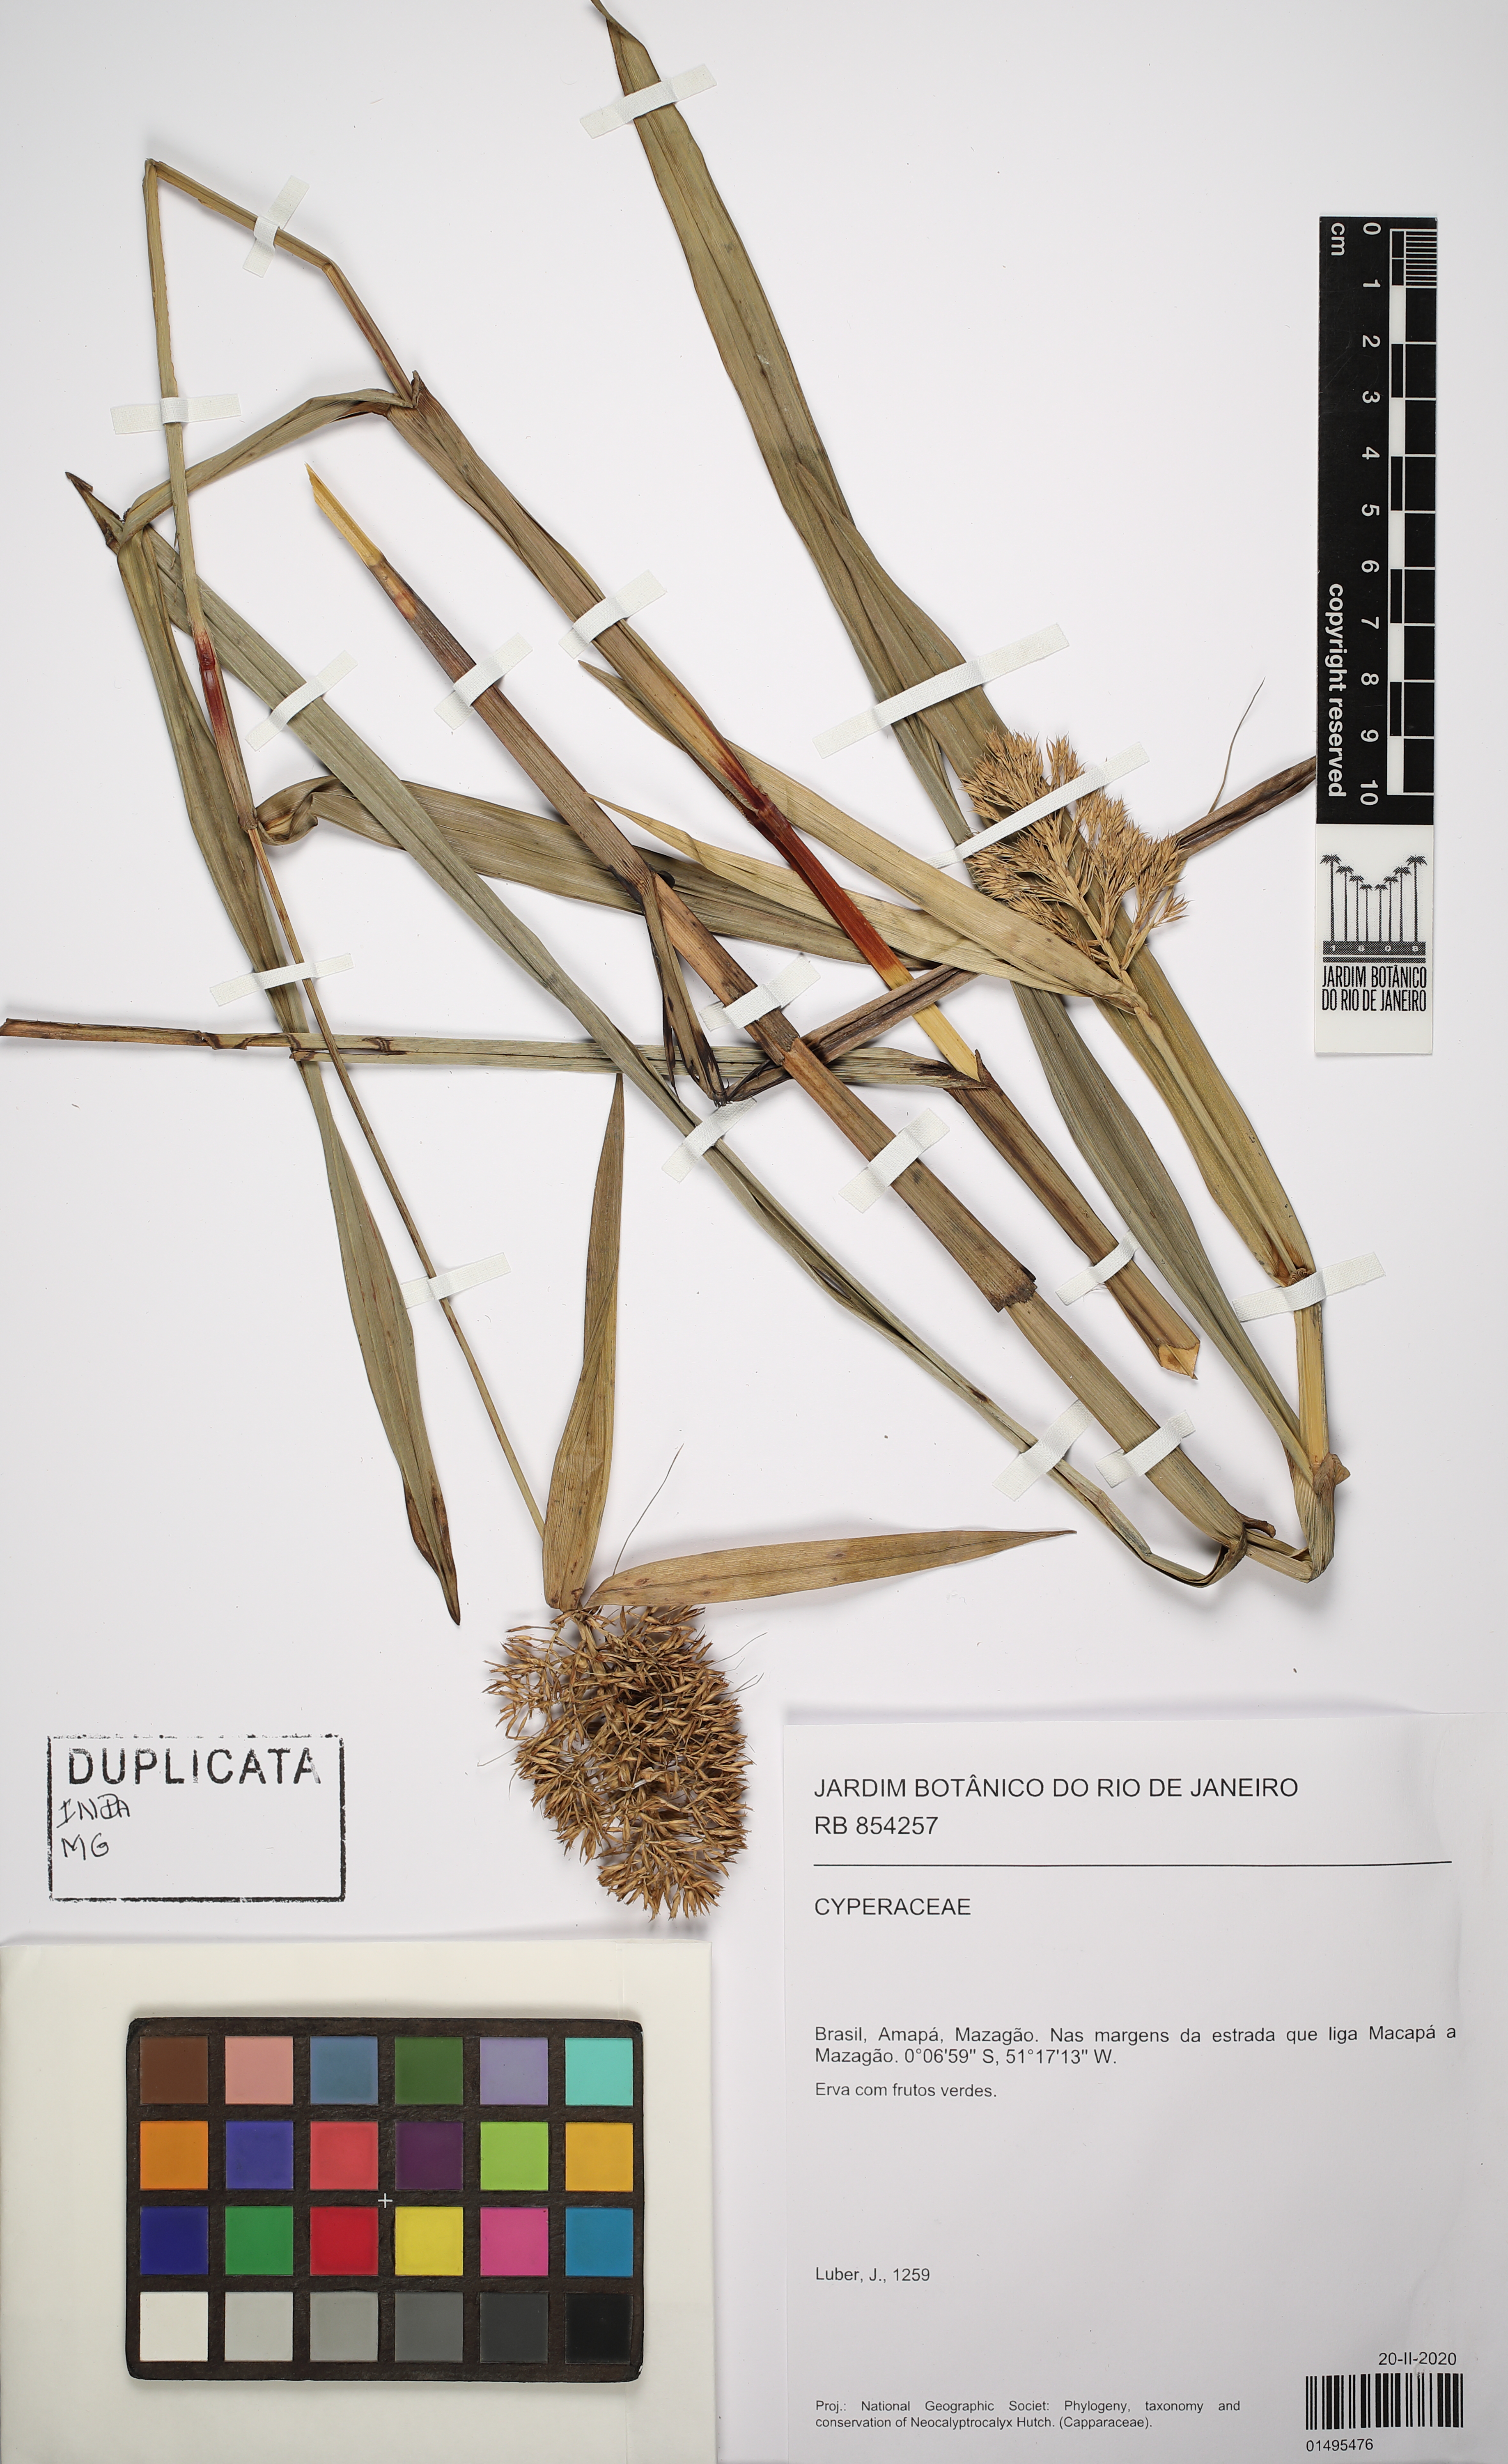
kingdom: Plantae
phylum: Tracheophyta
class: Liliopsida
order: Poales
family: Cyperaceae
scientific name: Cyperaceae
